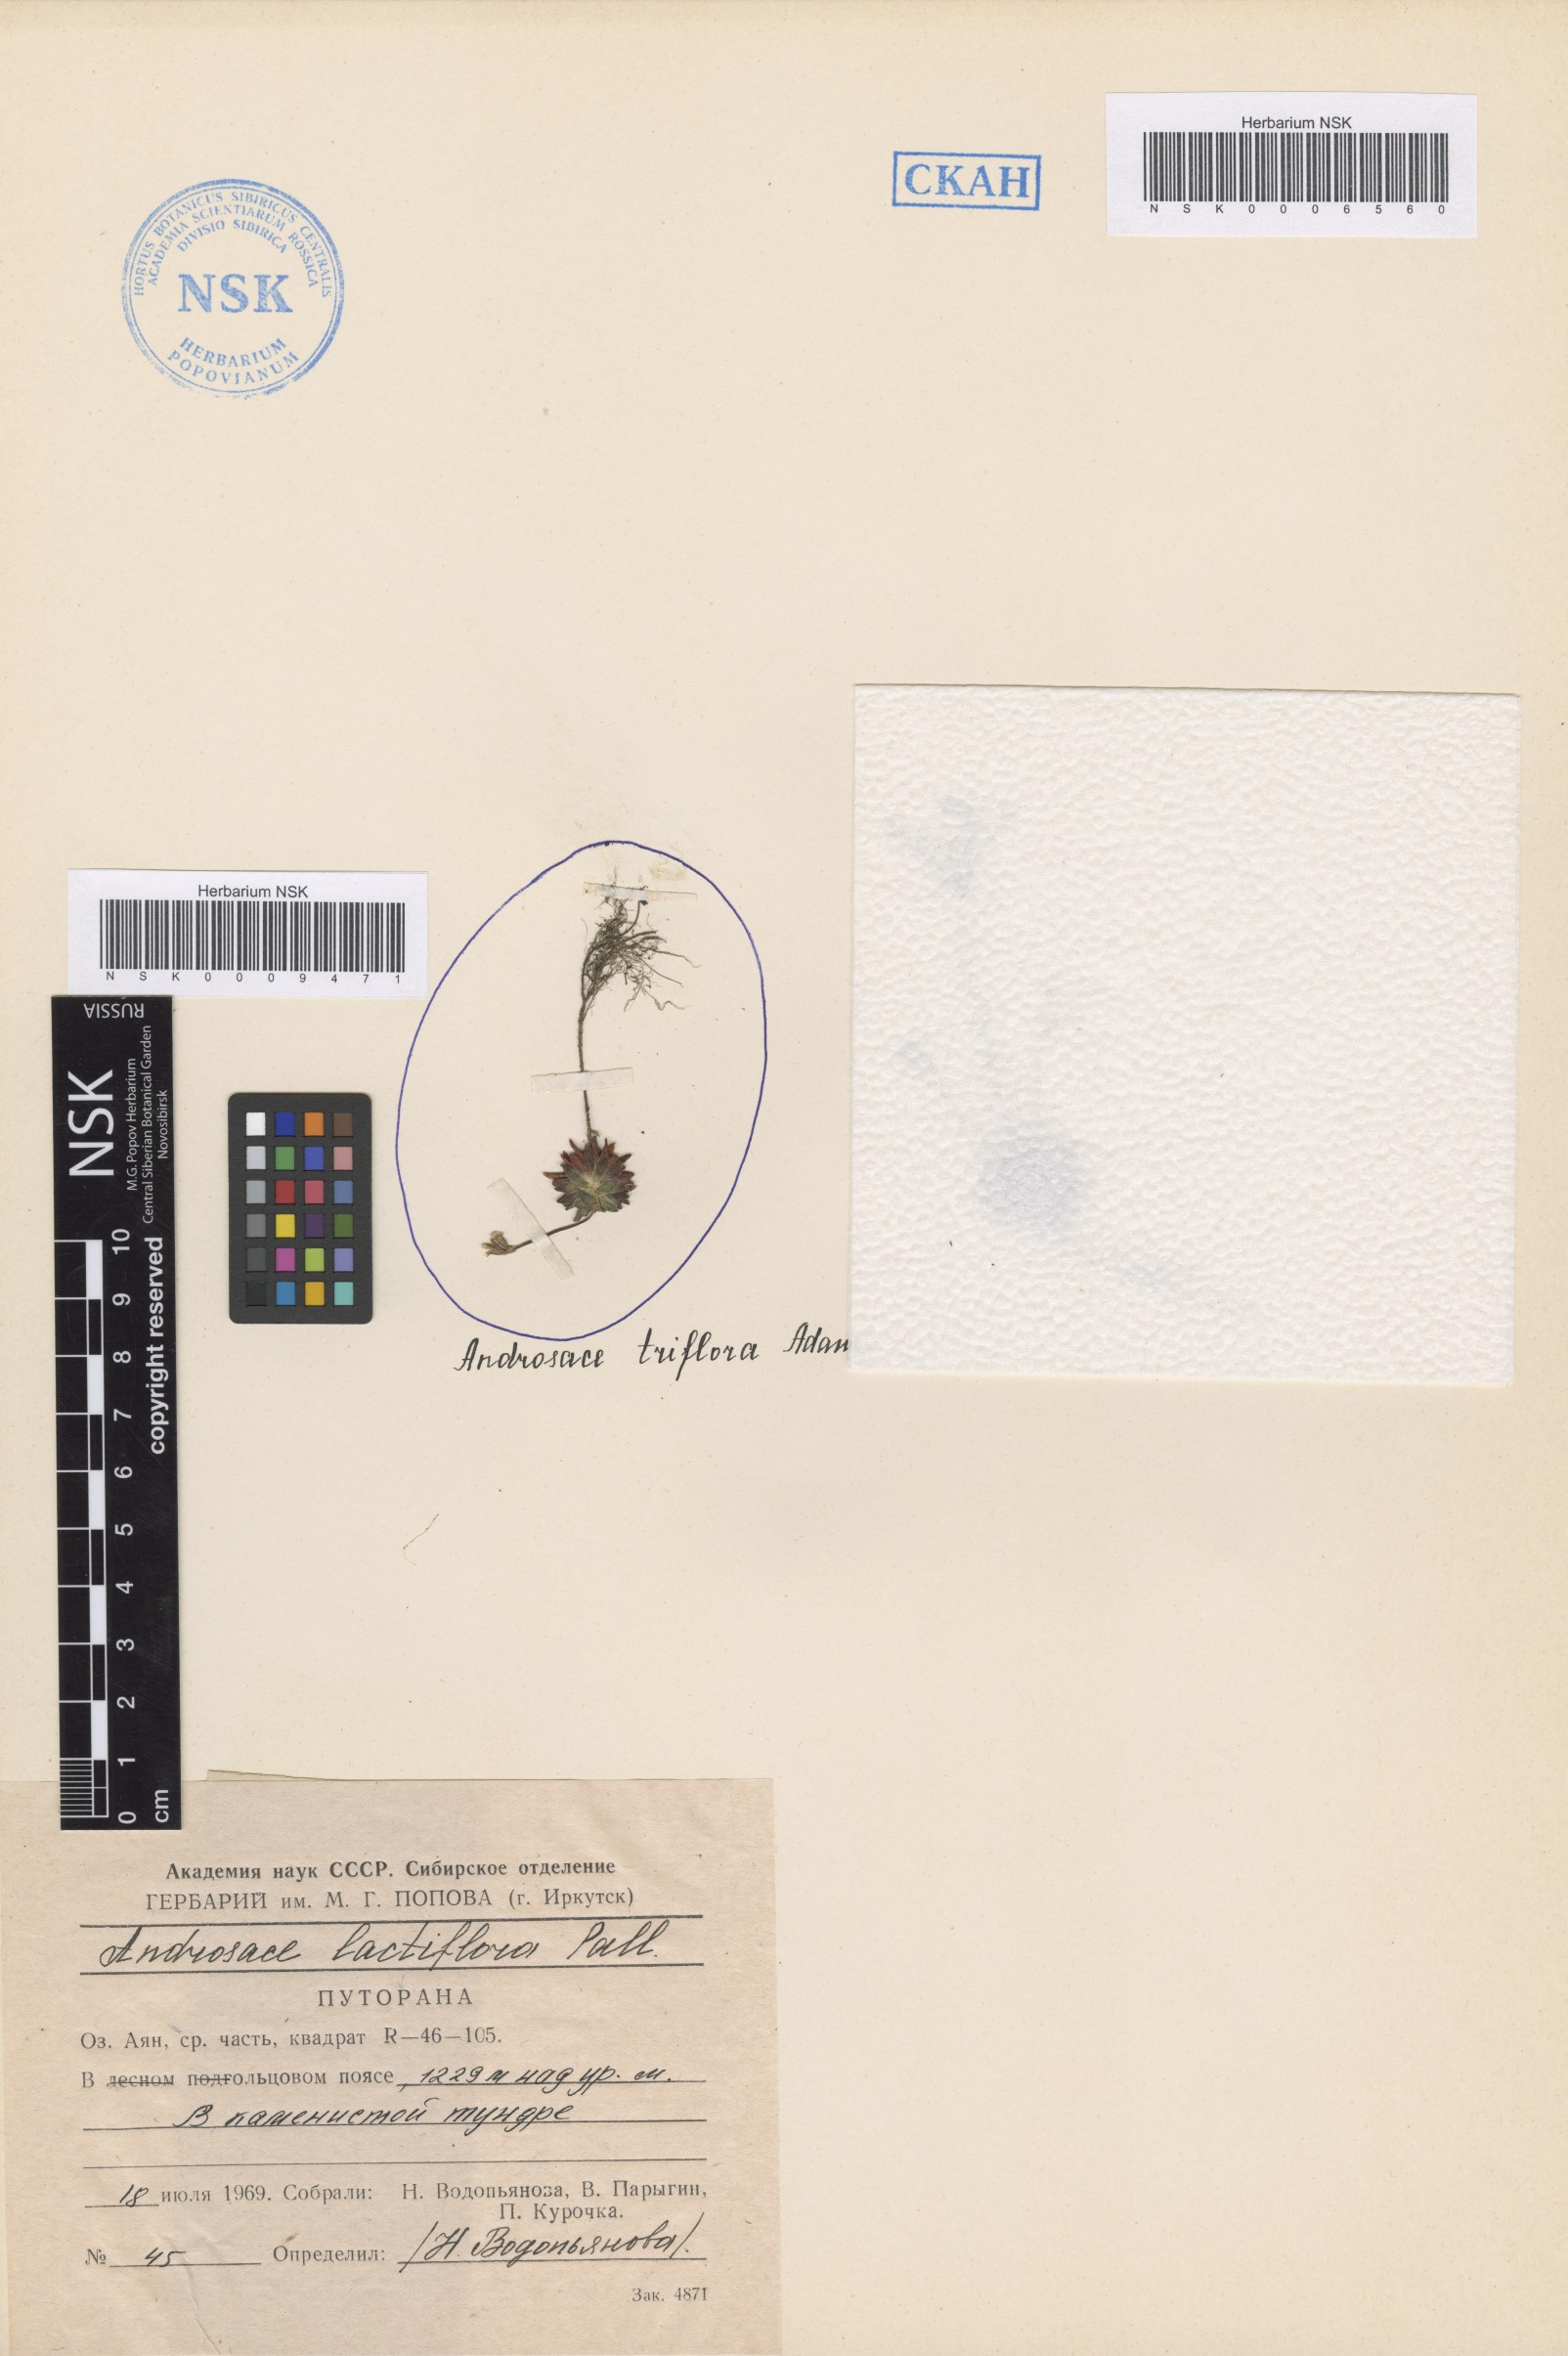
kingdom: Plantae
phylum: Tracheophyta
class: Magnoliopsida
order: Ericales
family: Primulaceae
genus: Androsace
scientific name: Androsace triflora
